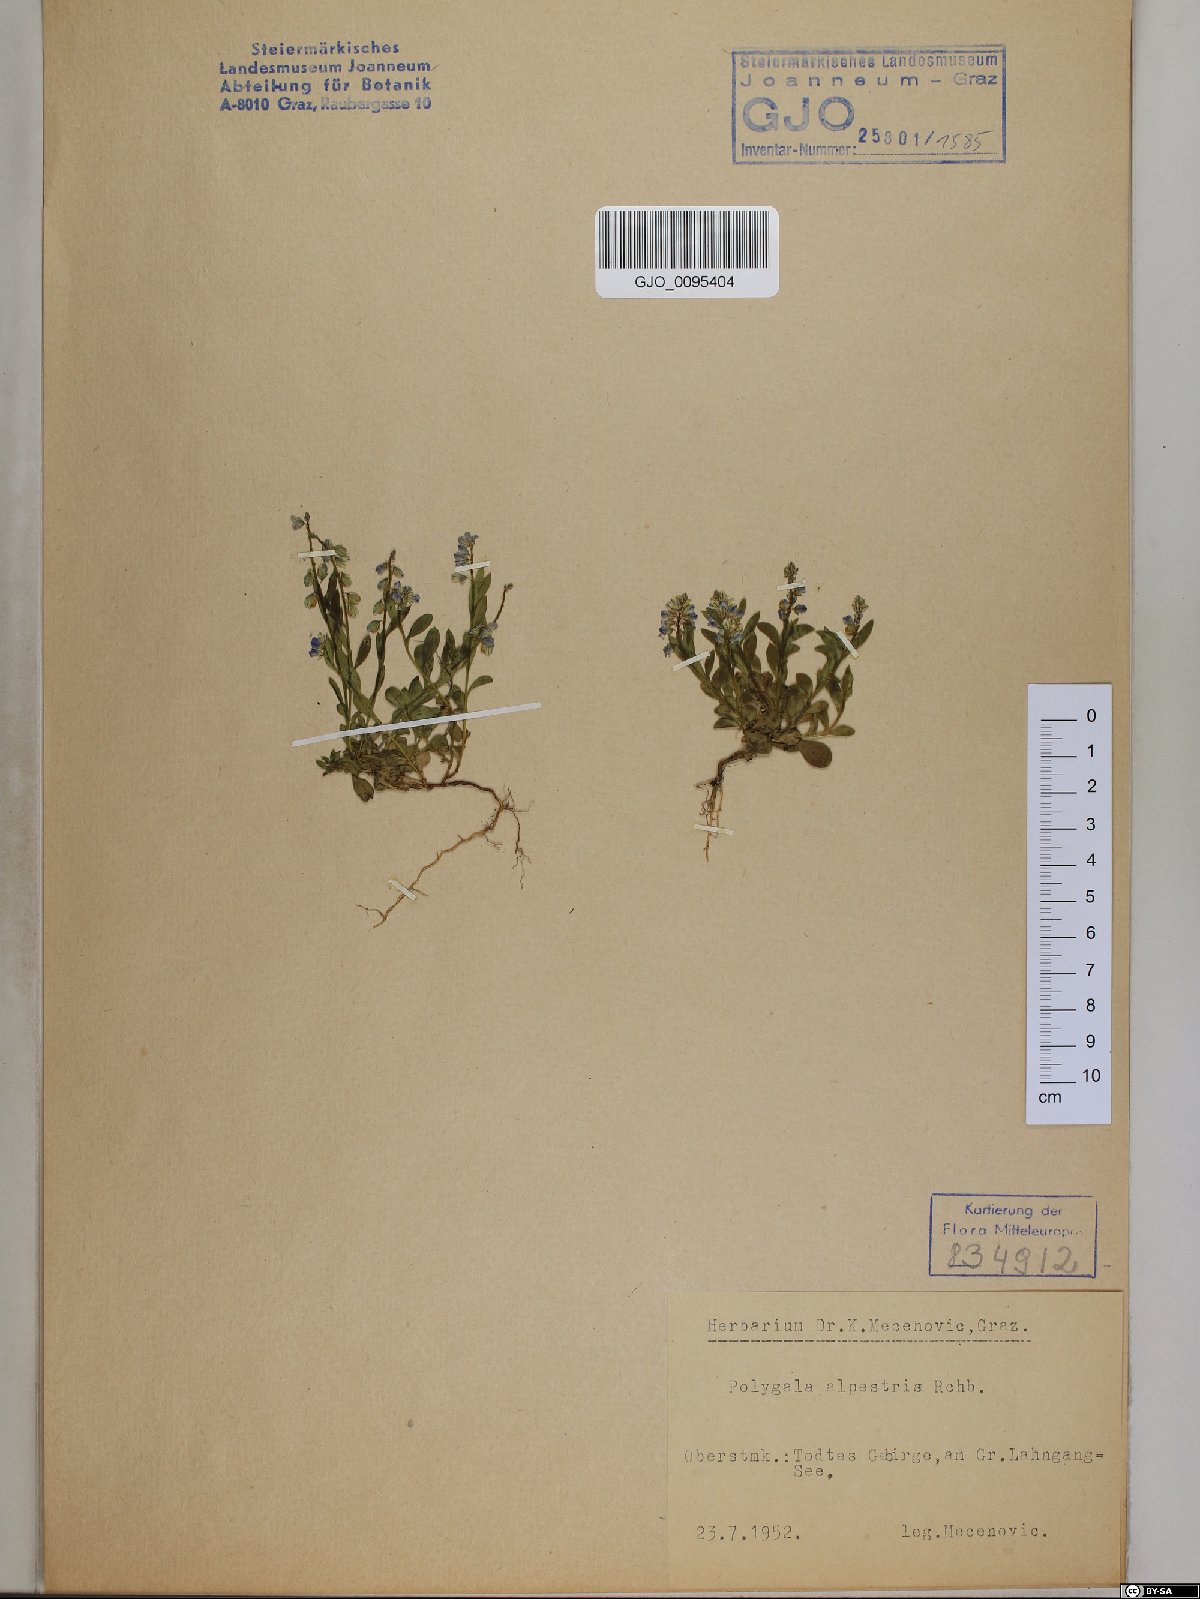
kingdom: Plantae
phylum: Tracheophyta
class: Magnoliopsida
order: Fabales
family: Polygalaceae
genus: Polygala
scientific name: Polygala alpestris
